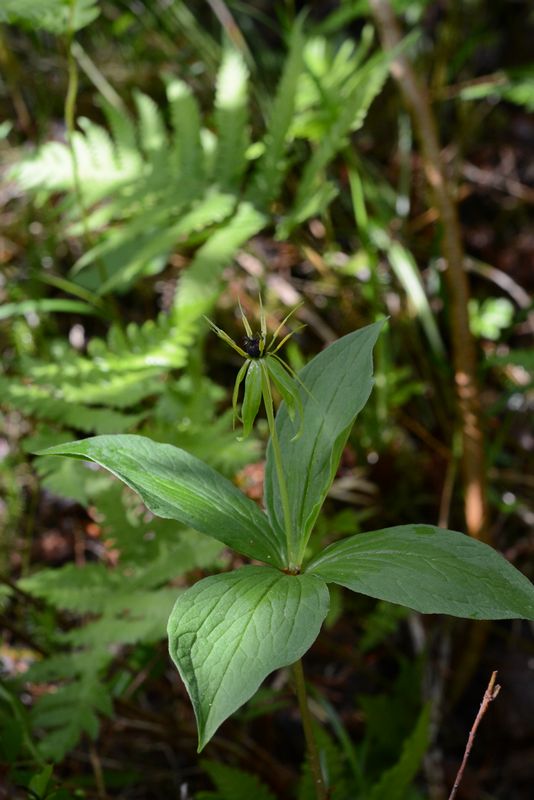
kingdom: Plantae
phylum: Tracheophyta
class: Liliopsida
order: Liliales
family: Melanthiaceae
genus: Paris
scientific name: Paris quadrifolia
